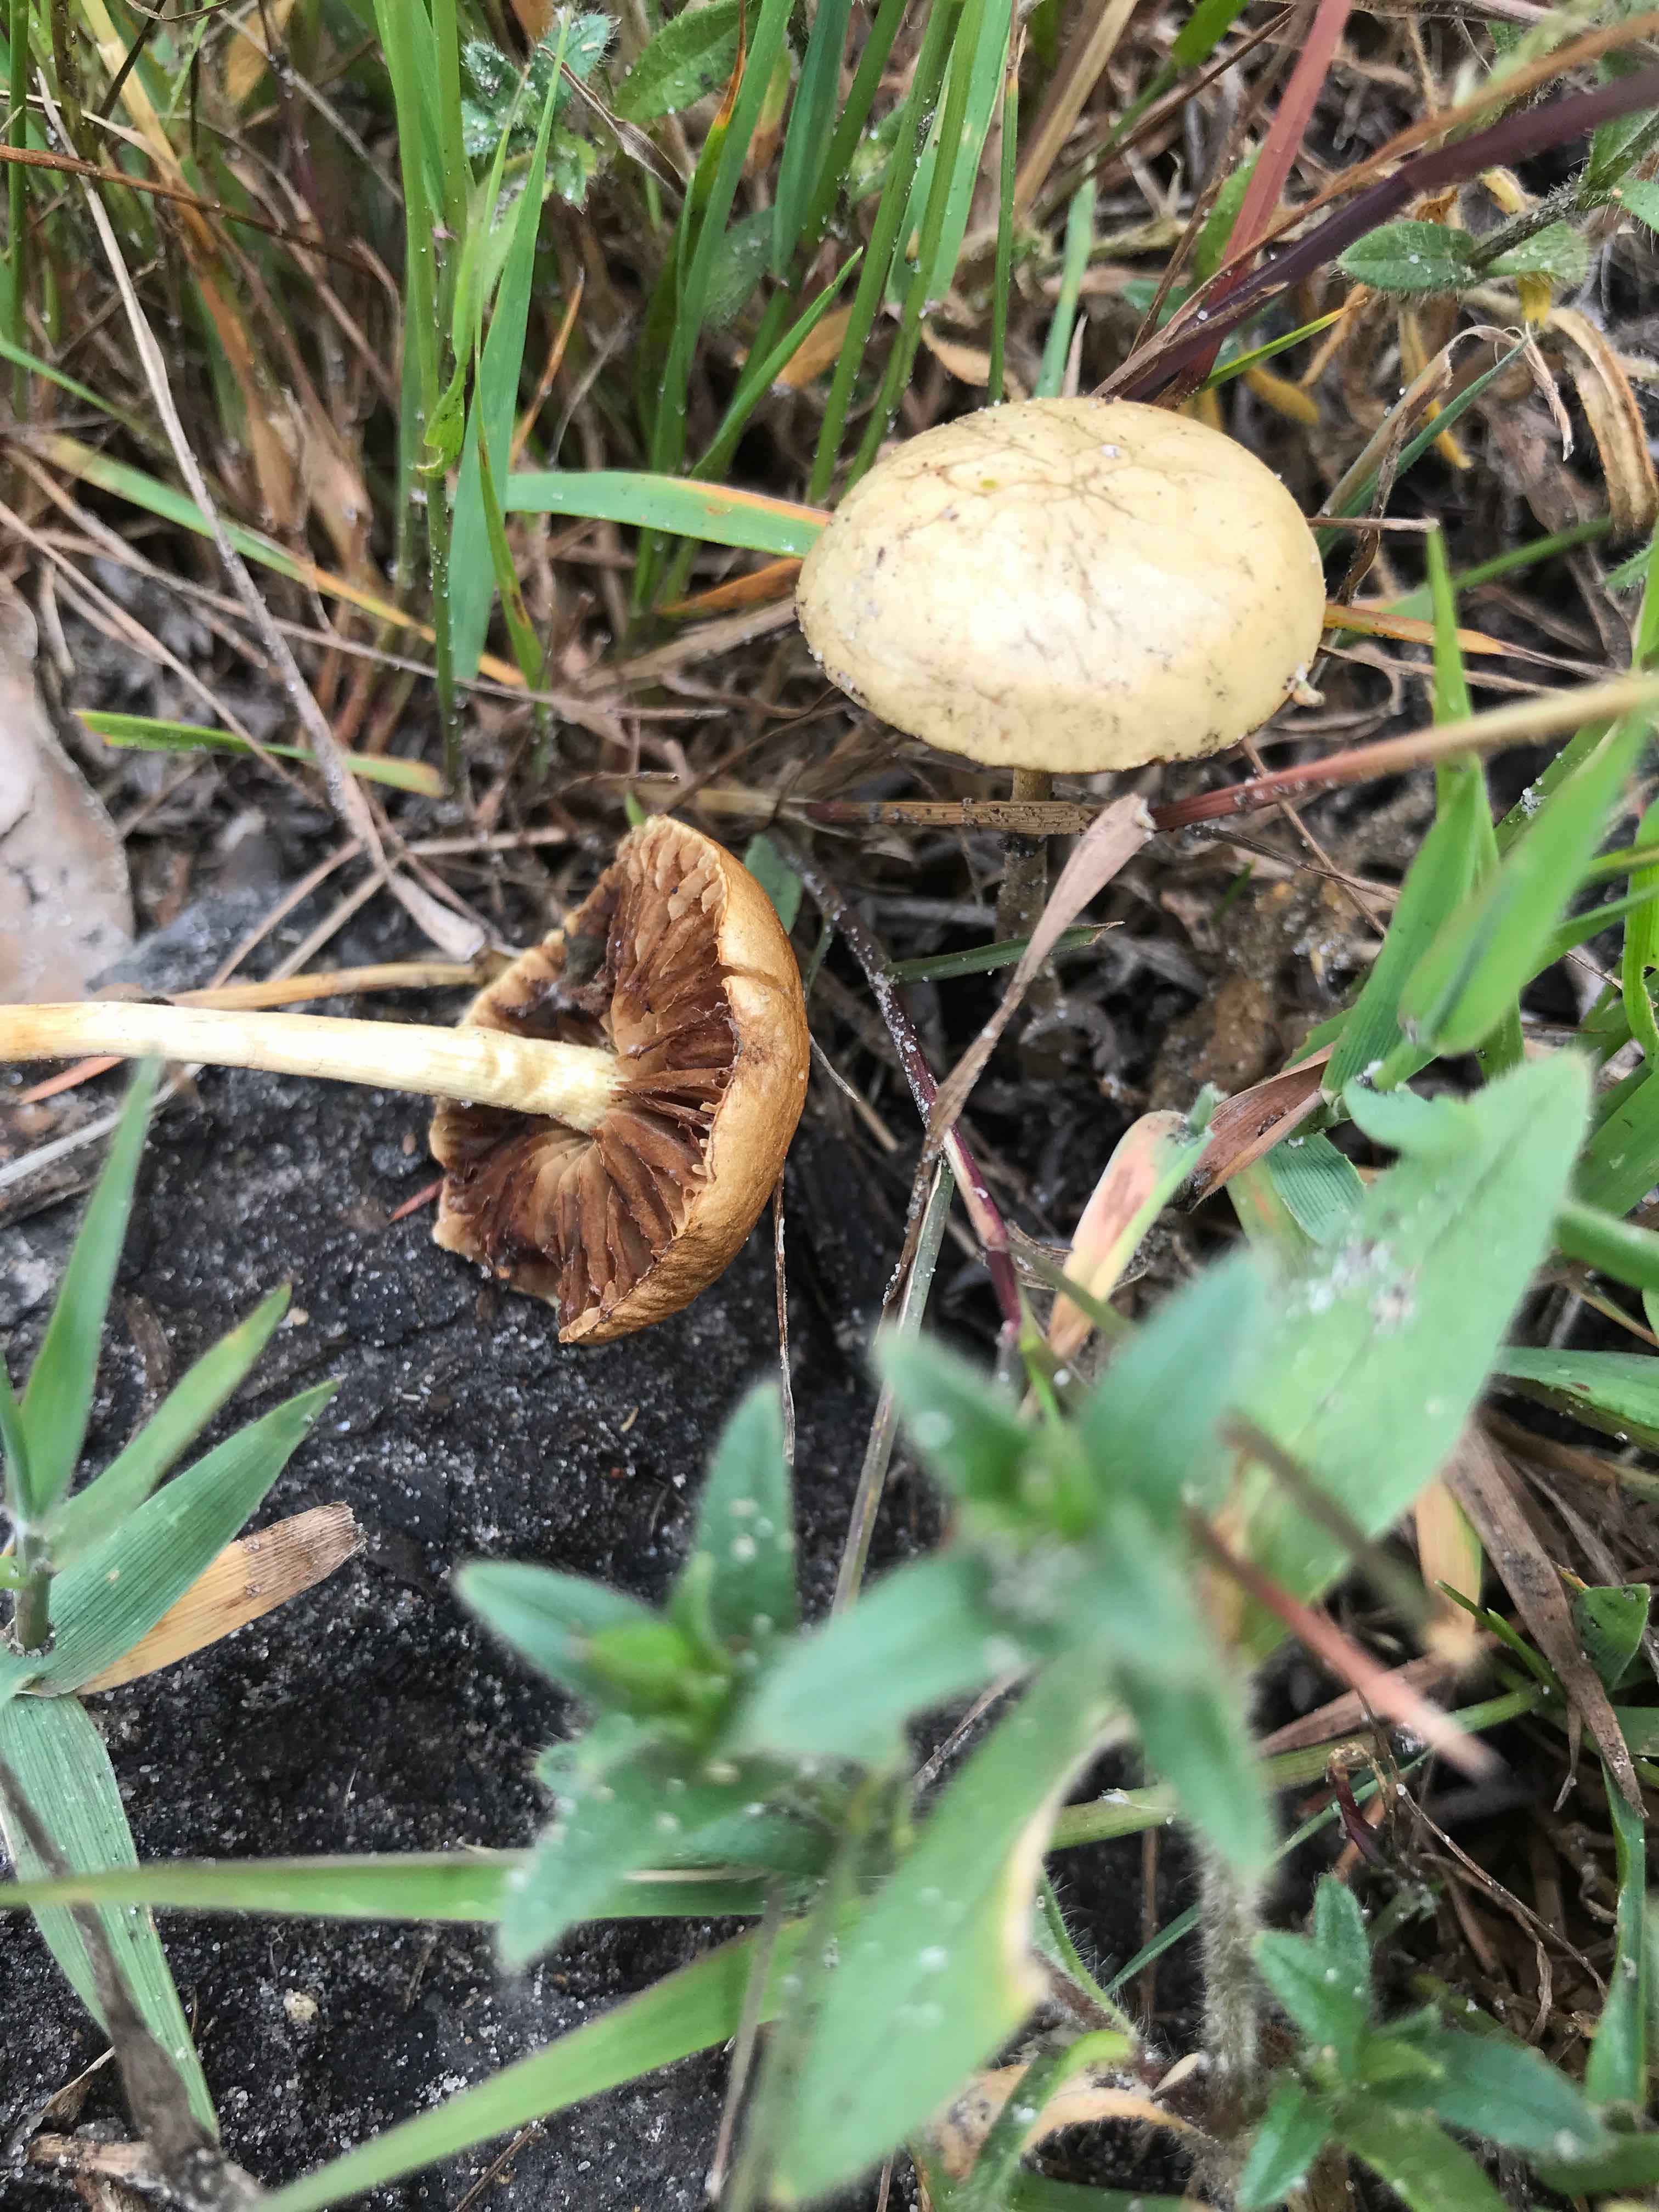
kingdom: Fungi
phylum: Basidiomycota
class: Agaricomycetes
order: Agaricales
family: Strophariaceae
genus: Agrocybe
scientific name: Agrocybe pediades
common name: almindelig agerhat
